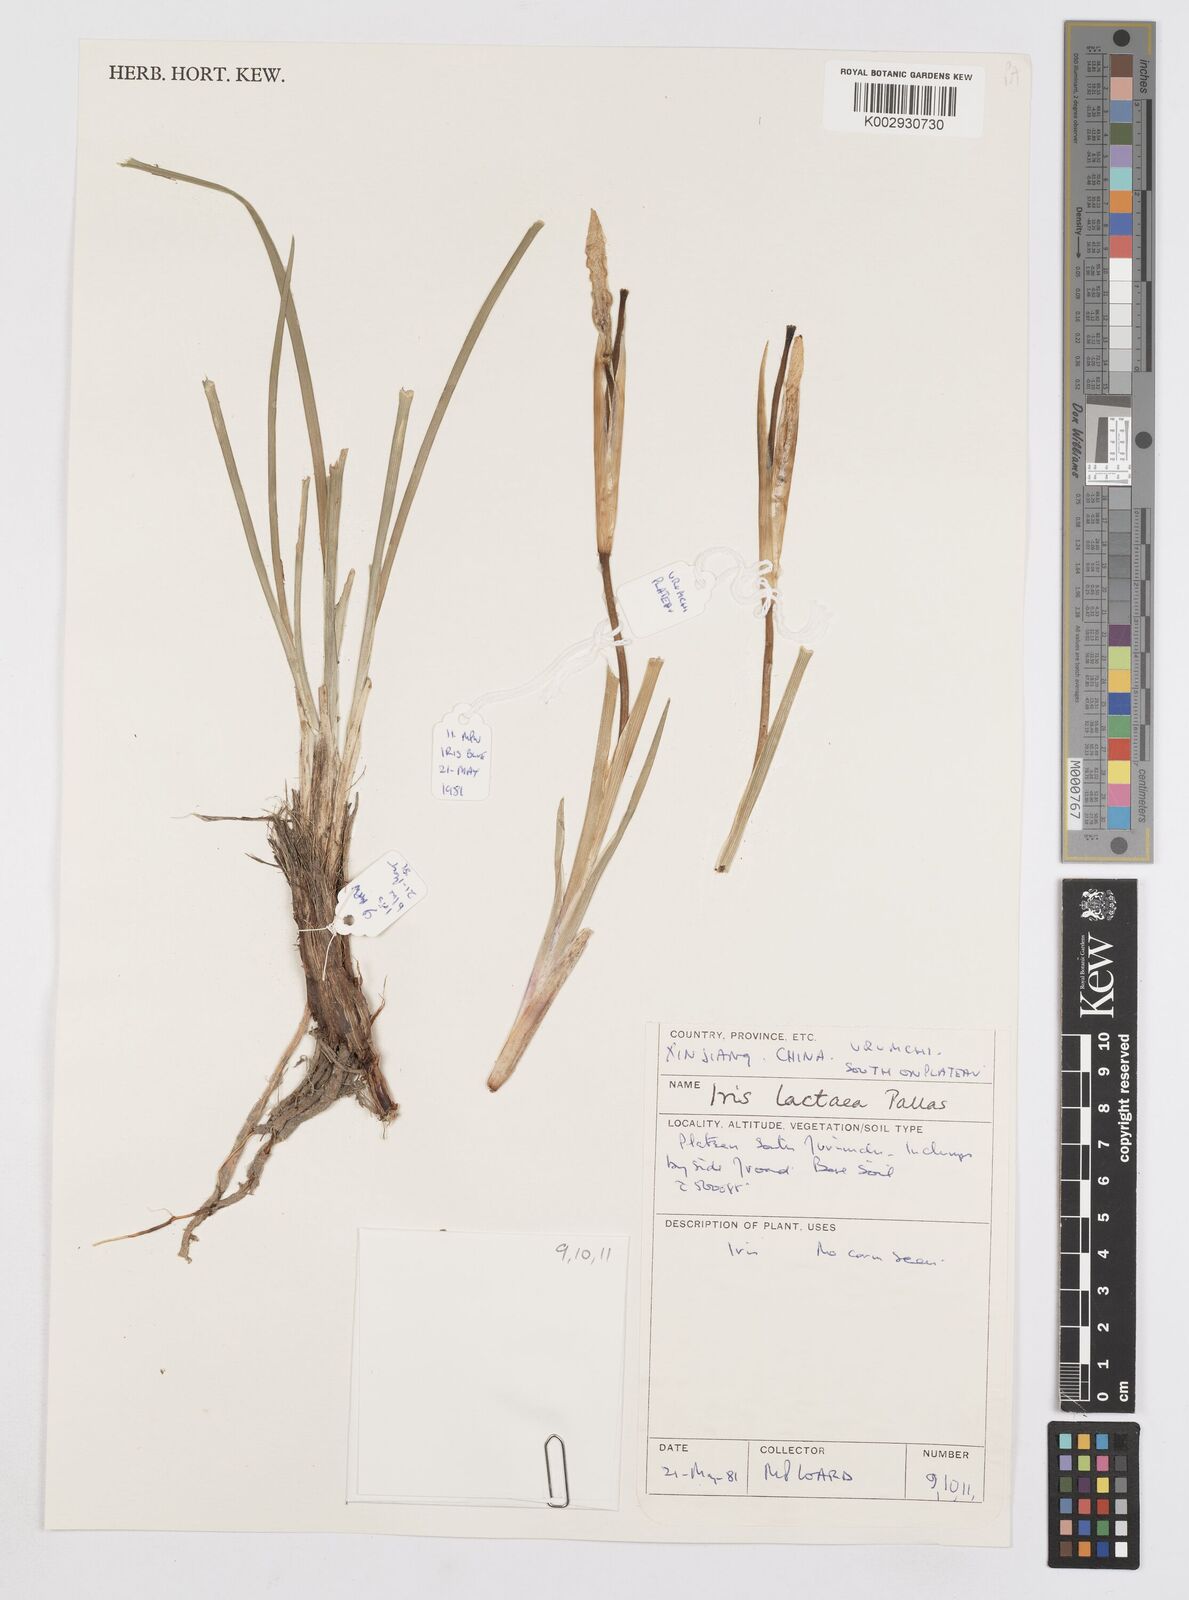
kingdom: Plantae
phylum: Tracheophyta
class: Liliopsida
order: Asparagales
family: Iridaceae
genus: Iris
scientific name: Iris lactea
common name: White-flower chinese iris
